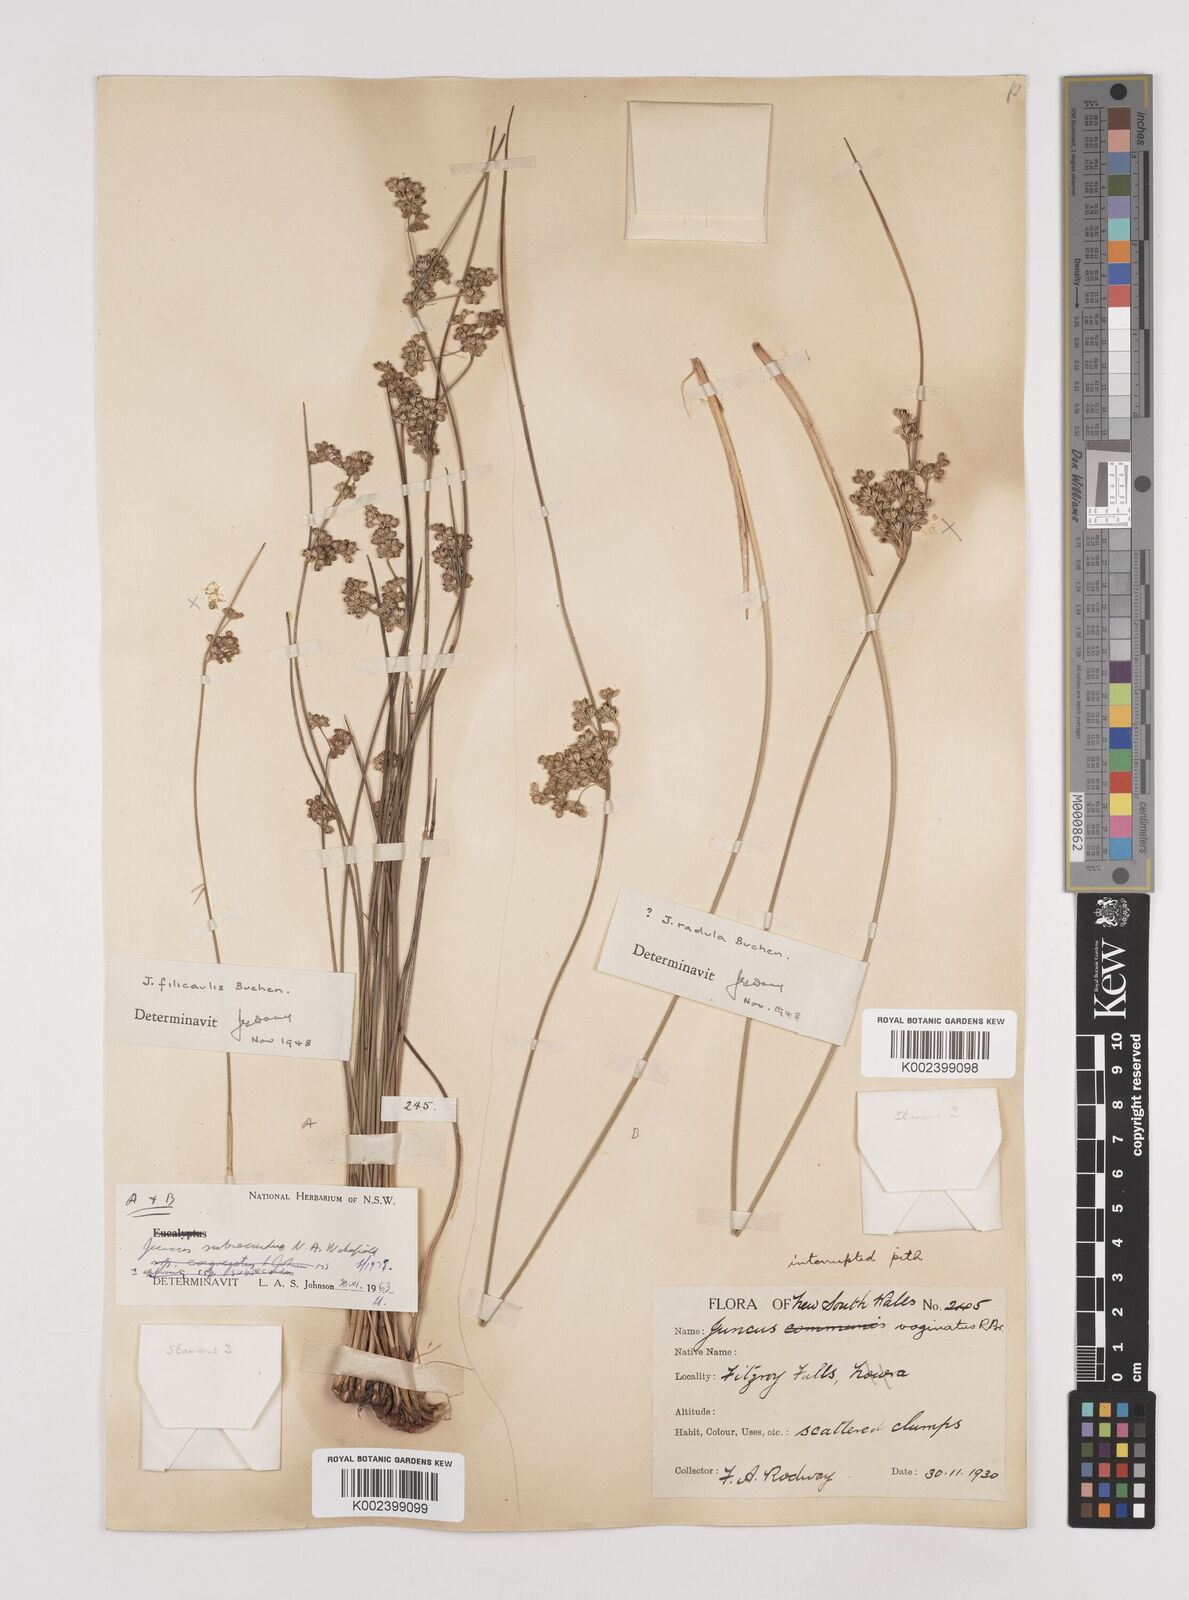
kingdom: Plantae
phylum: Tracheophyta
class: Liliopsida
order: Poales
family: Juncaceae
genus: Juncus
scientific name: Juncus subsecundus
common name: Fingered rush
